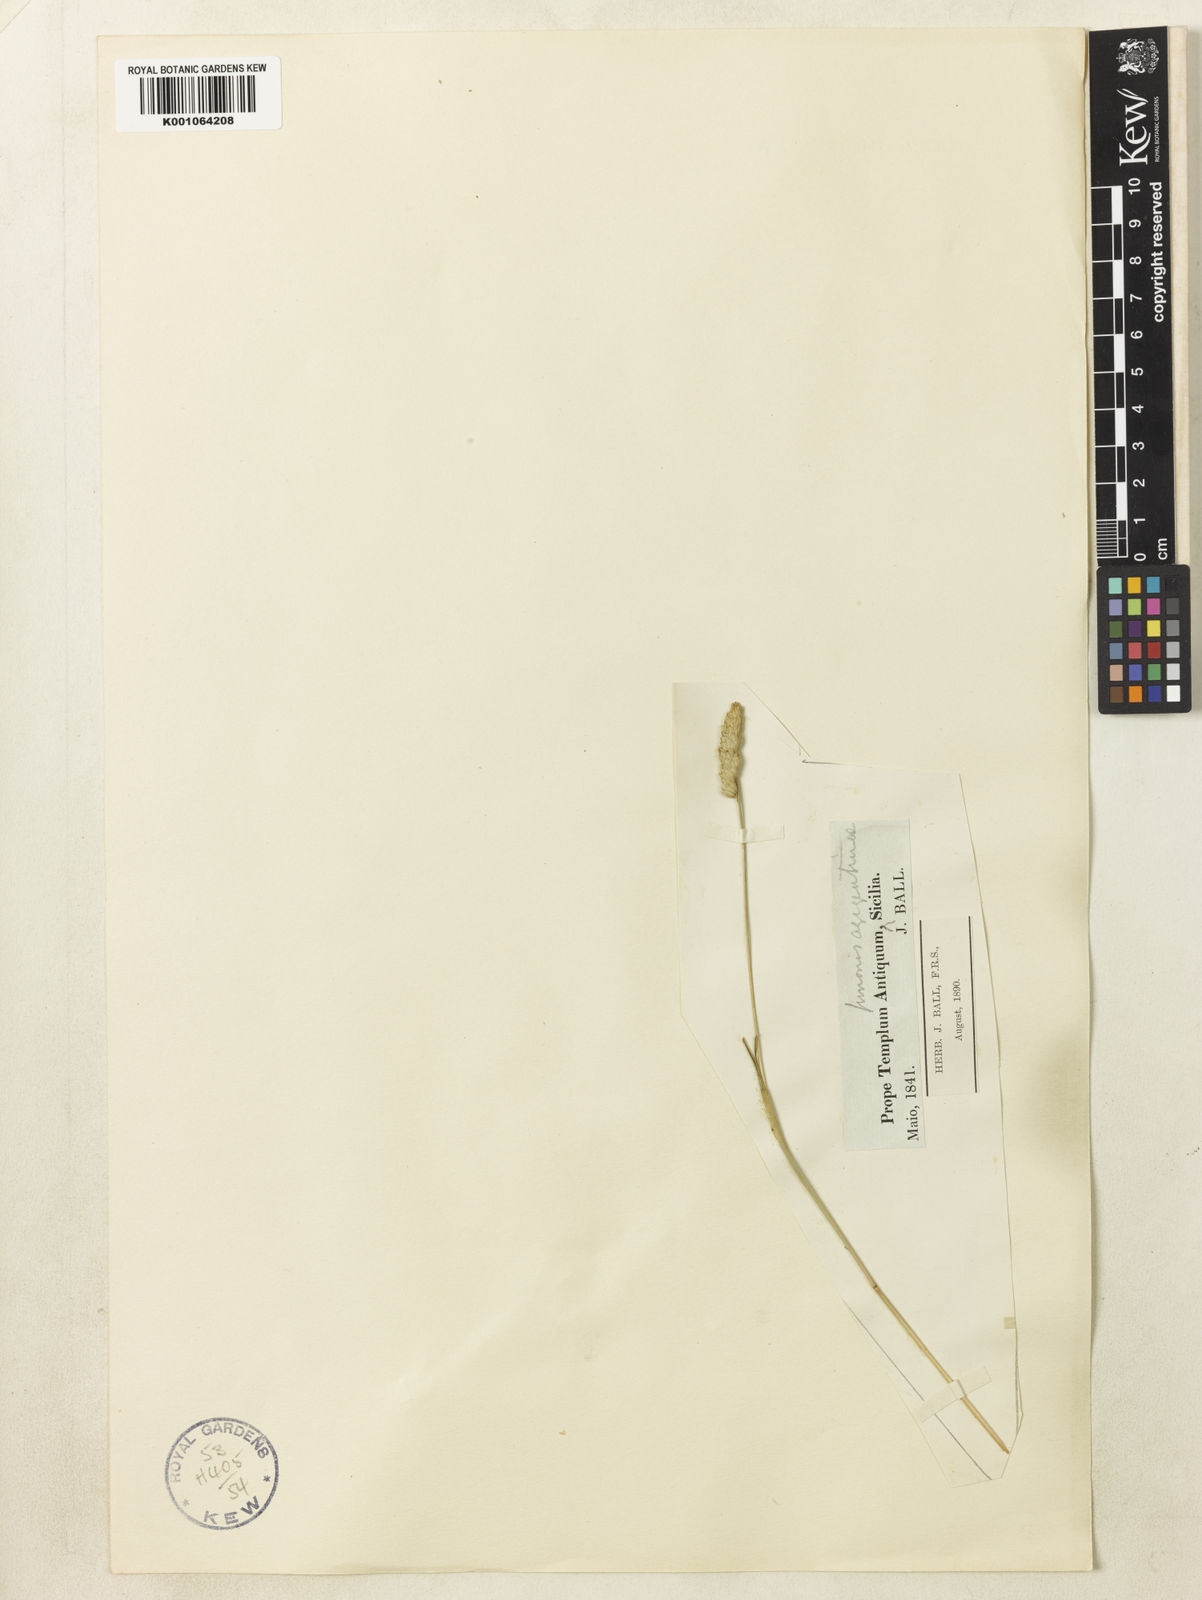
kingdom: Plantae
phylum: Tracheophyta
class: Liliopsida
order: Poales
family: Poaceae
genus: Dactylis
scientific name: Dactylis glomerata
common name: Orchardgrass
